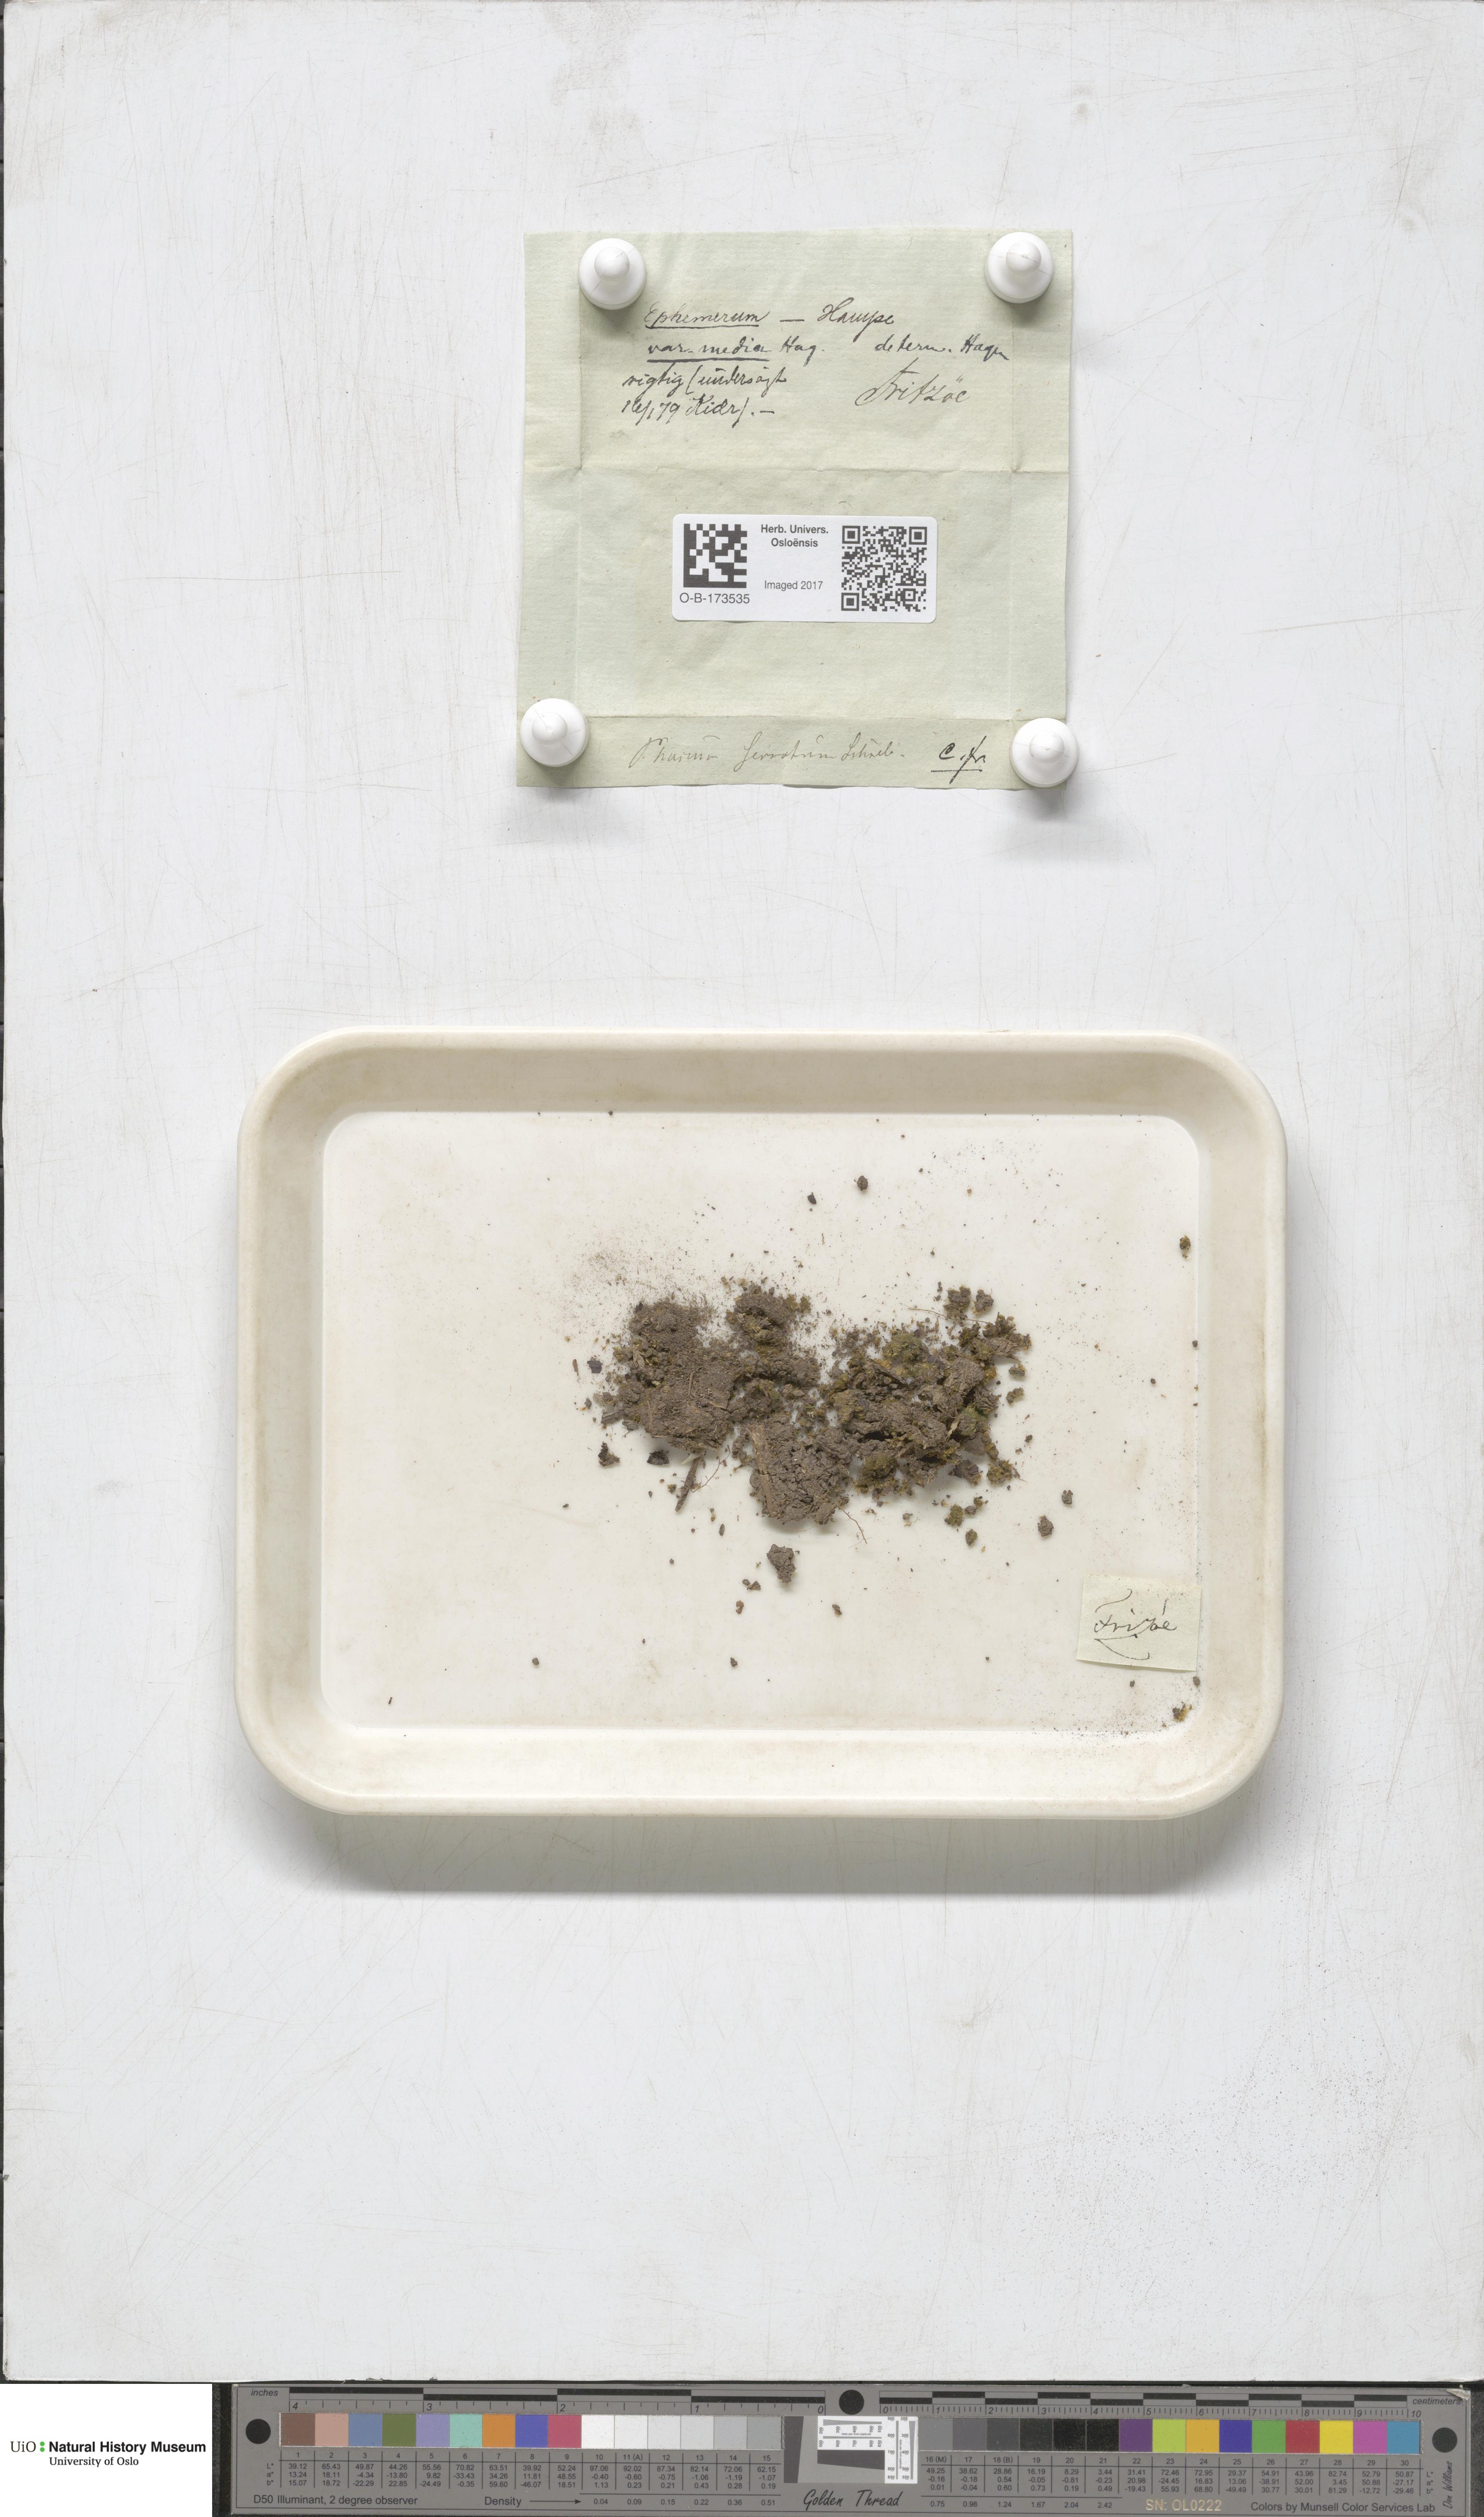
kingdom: Plantae
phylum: Bryophyta
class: Bryopsida
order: Pottiales
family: Ephemeraceae
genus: Ephemerum
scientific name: Ephemerum serratum
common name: Serrated earth moss
